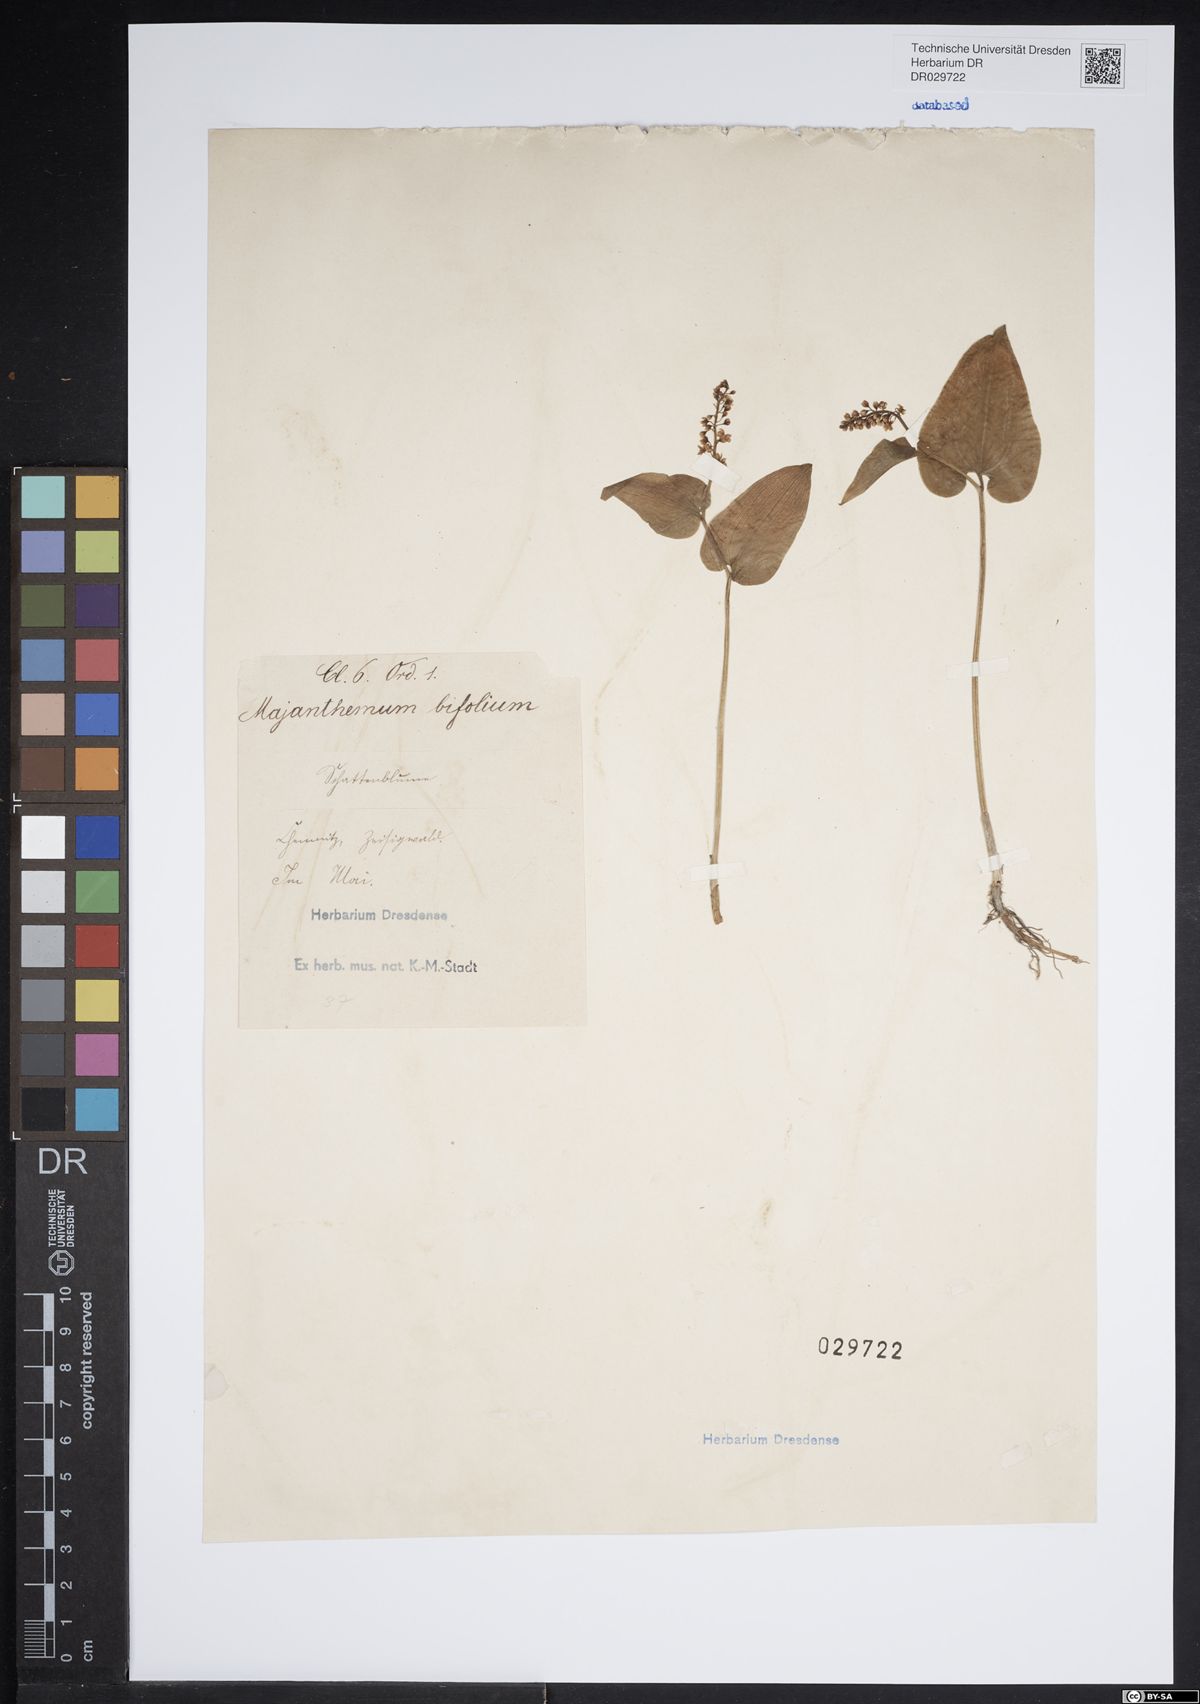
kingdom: Plantae
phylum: Tracheophyta
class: Liliopsida
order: Asparagales
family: Asparagaceae
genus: Maianthemum
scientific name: Maianthemum bifolium
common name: May lily
